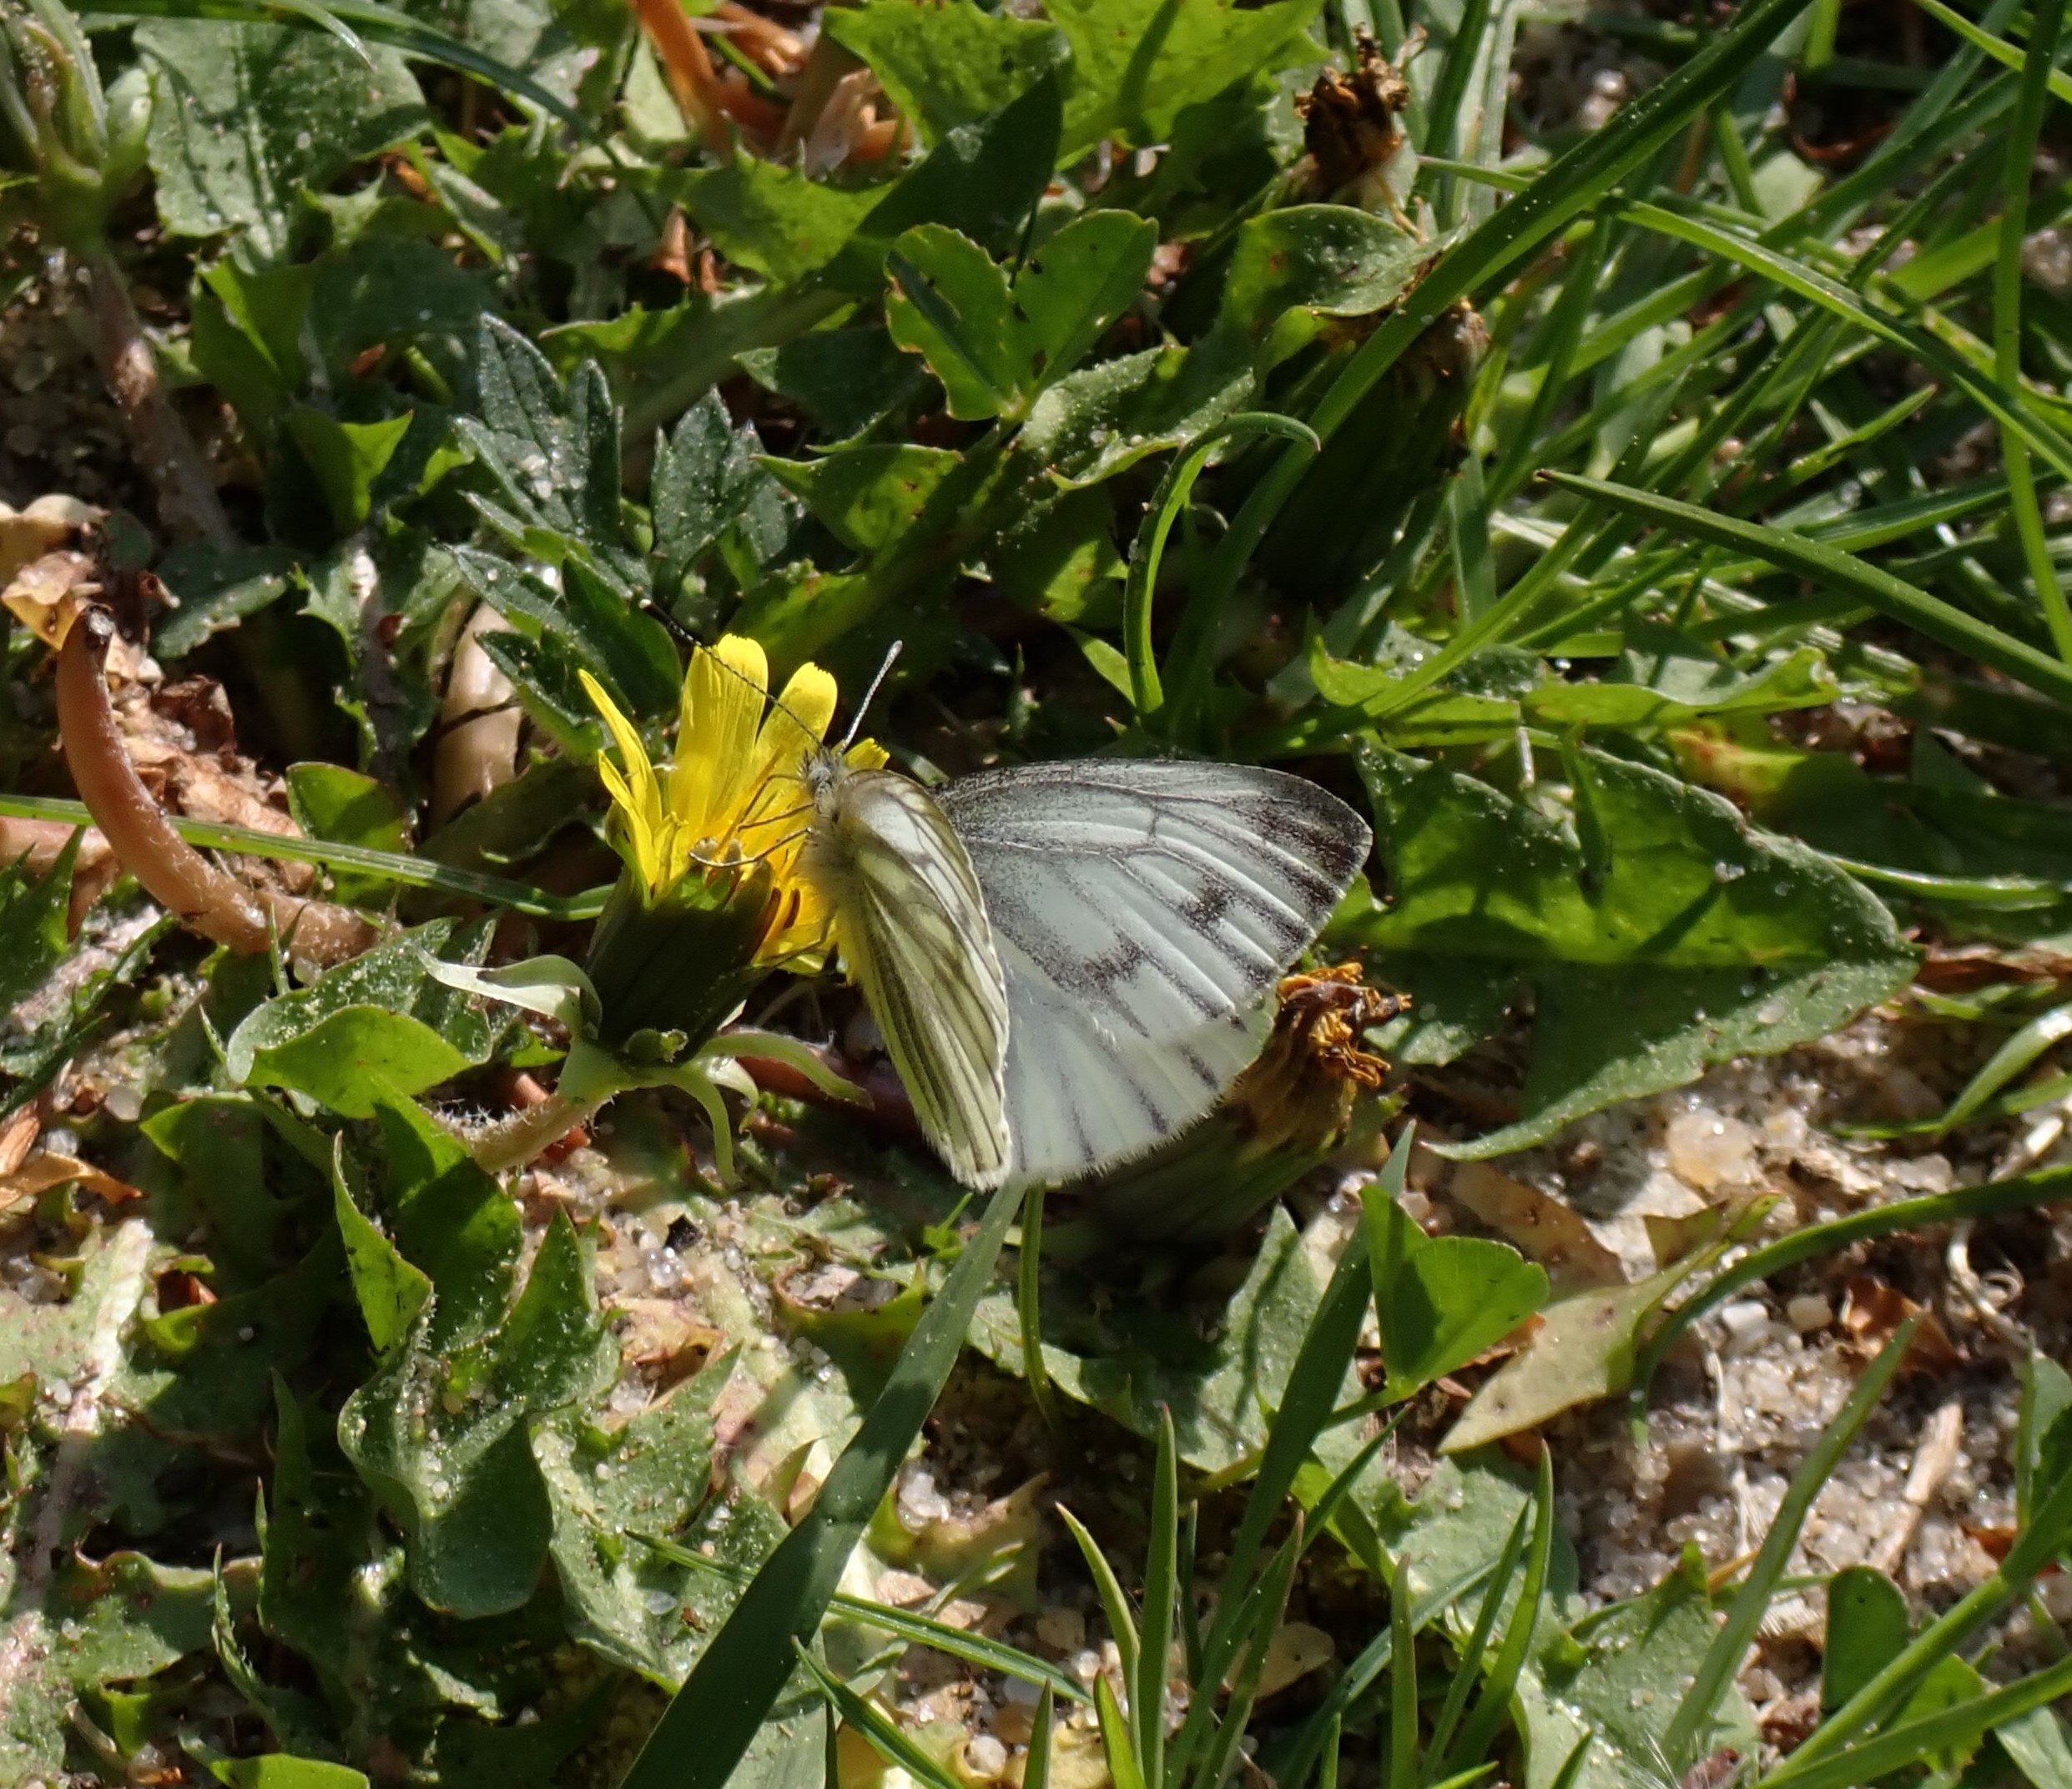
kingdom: Animalia
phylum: Arthropoda
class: Insecta
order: Lepidoptera
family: Pieridae
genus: Pieris
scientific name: Pieris napi
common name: Grønåret kålsommerfugl
